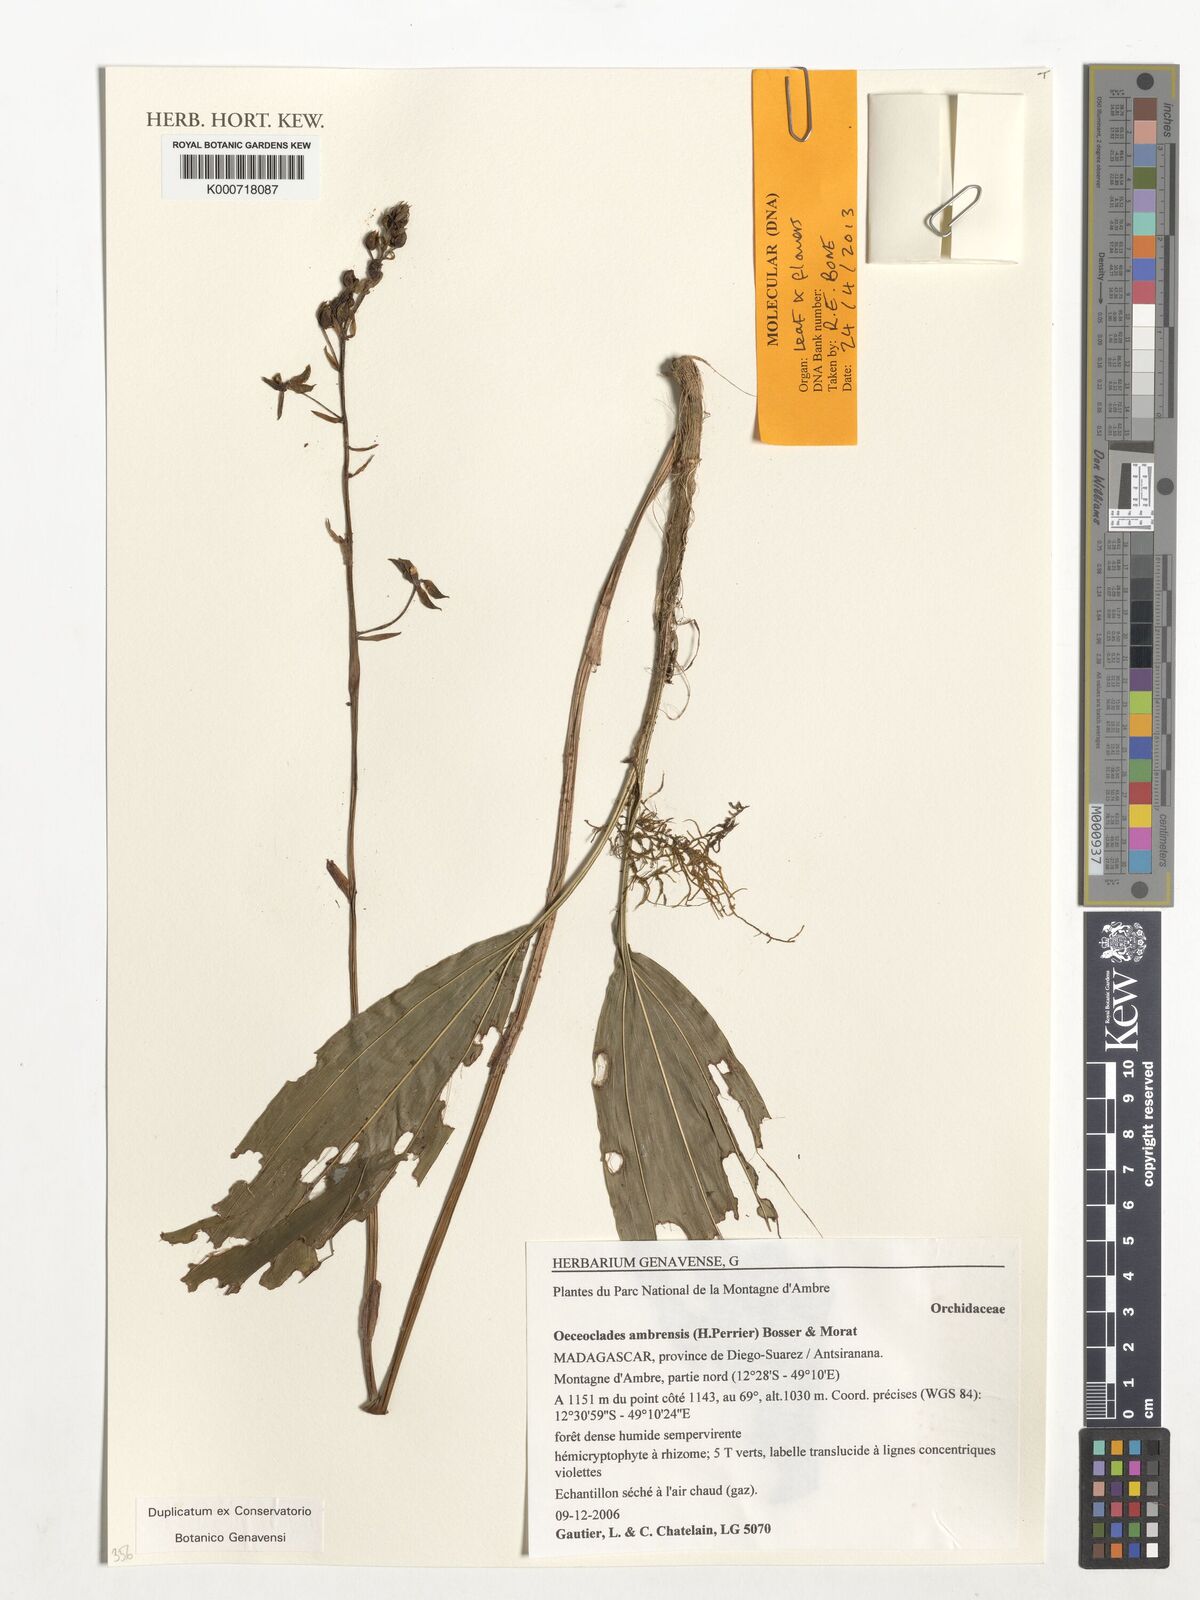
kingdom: Plantae
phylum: Tracheophyta
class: Liliopsida
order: Asparagales
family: Orchidaceae
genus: Eulophia
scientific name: Eulophia ambrensis
